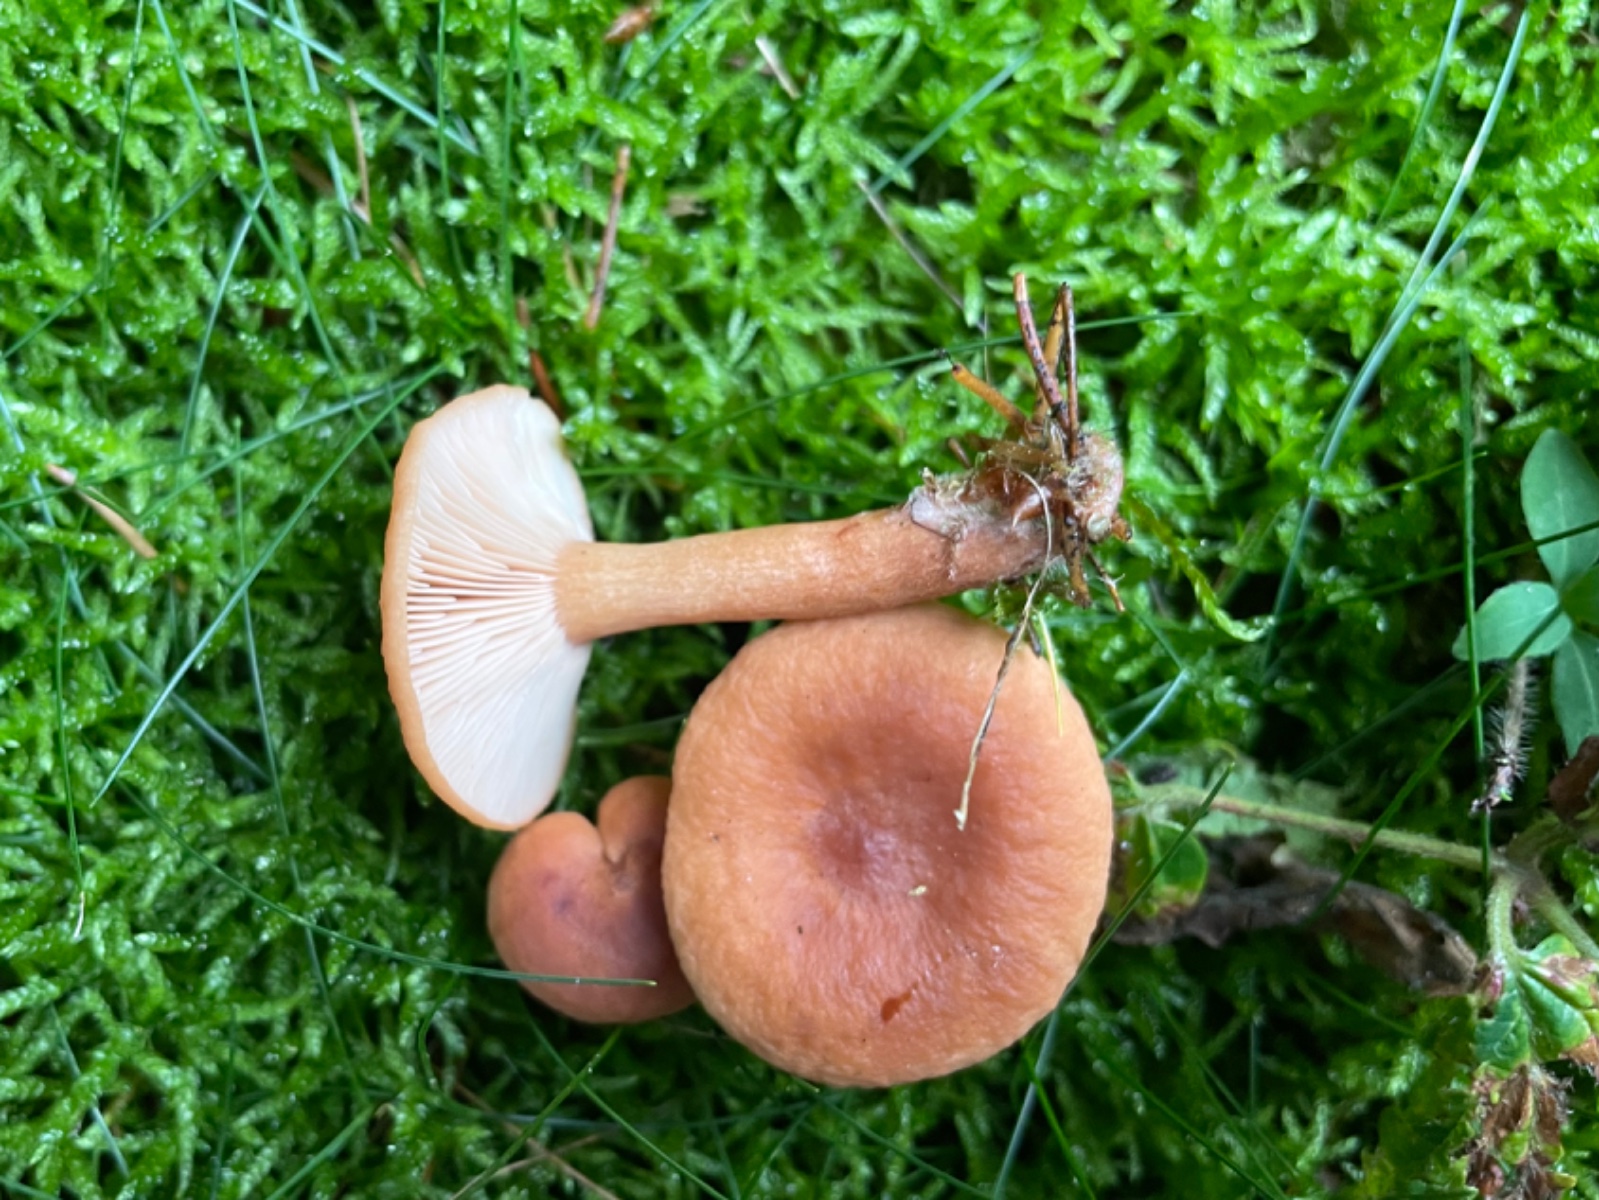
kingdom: Fungi
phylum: Basidiomycota
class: Agaricomycetes
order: Russulales
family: Russulaceae
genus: Lactarius
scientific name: Lactarius rufus
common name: rødbrun mælkehat
